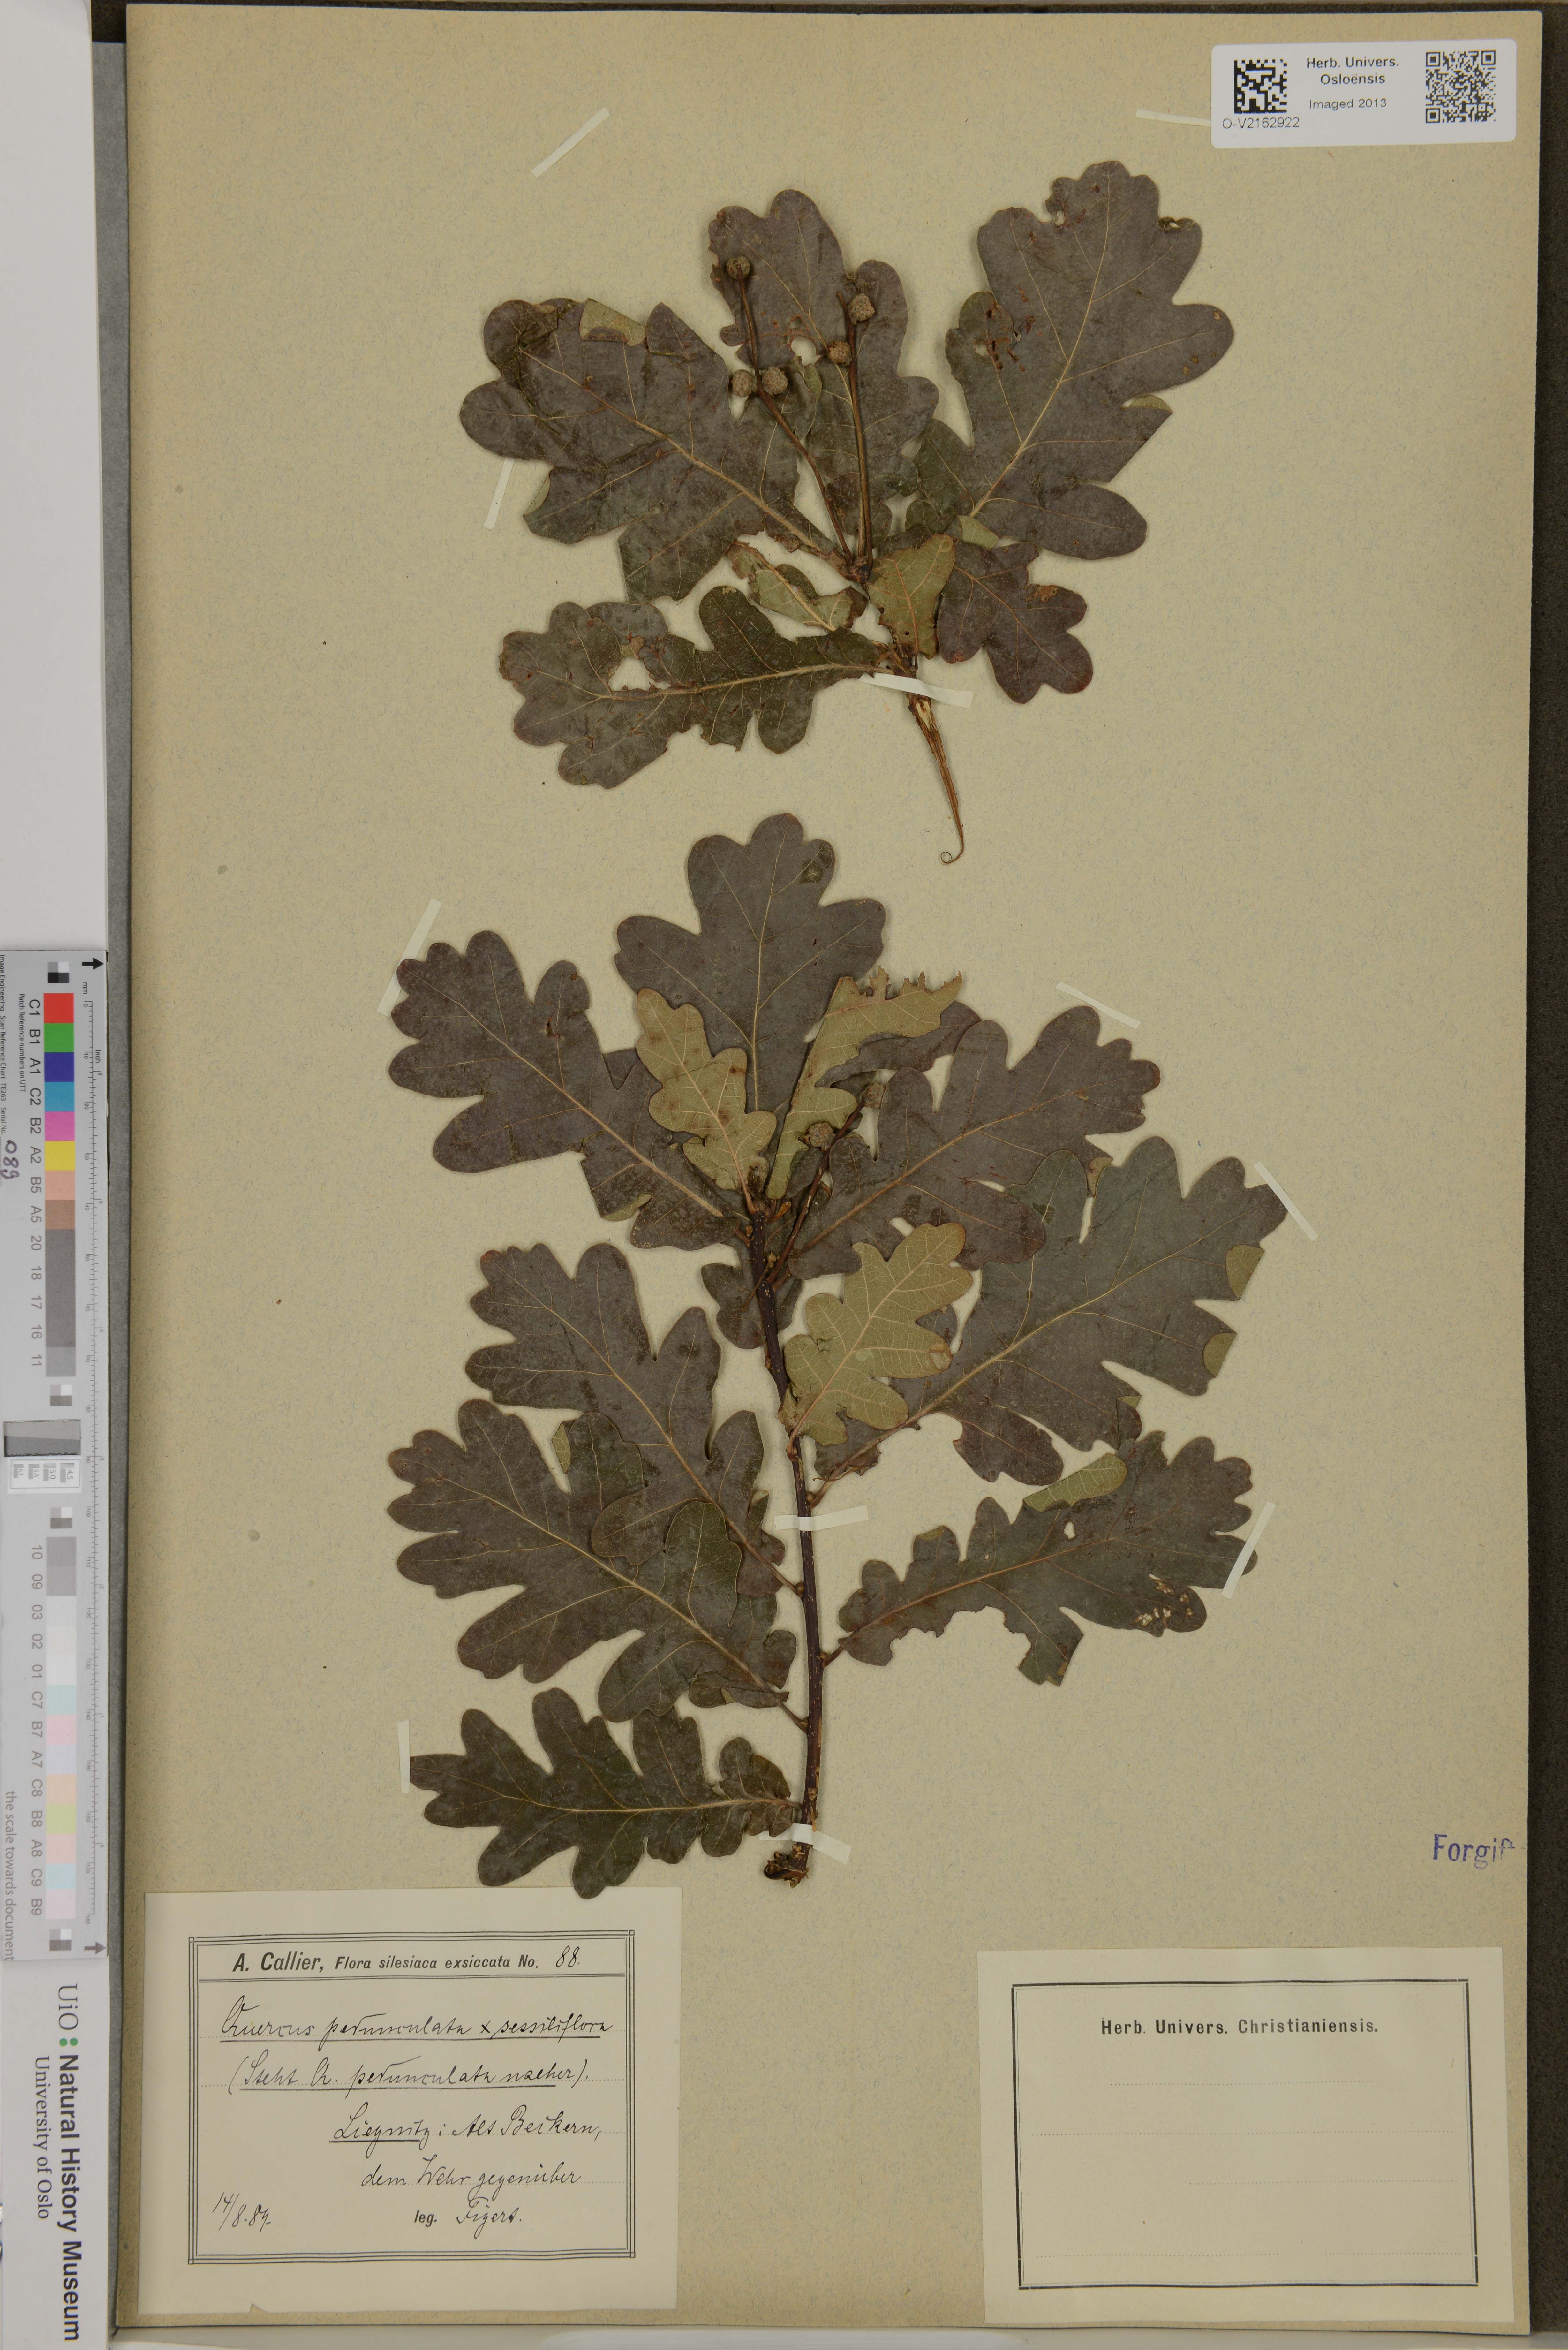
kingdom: Plantae
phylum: Tracheophyta
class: Magnoliopsida
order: Fagales
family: Fagaceae
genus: Quercus
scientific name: Quercus
